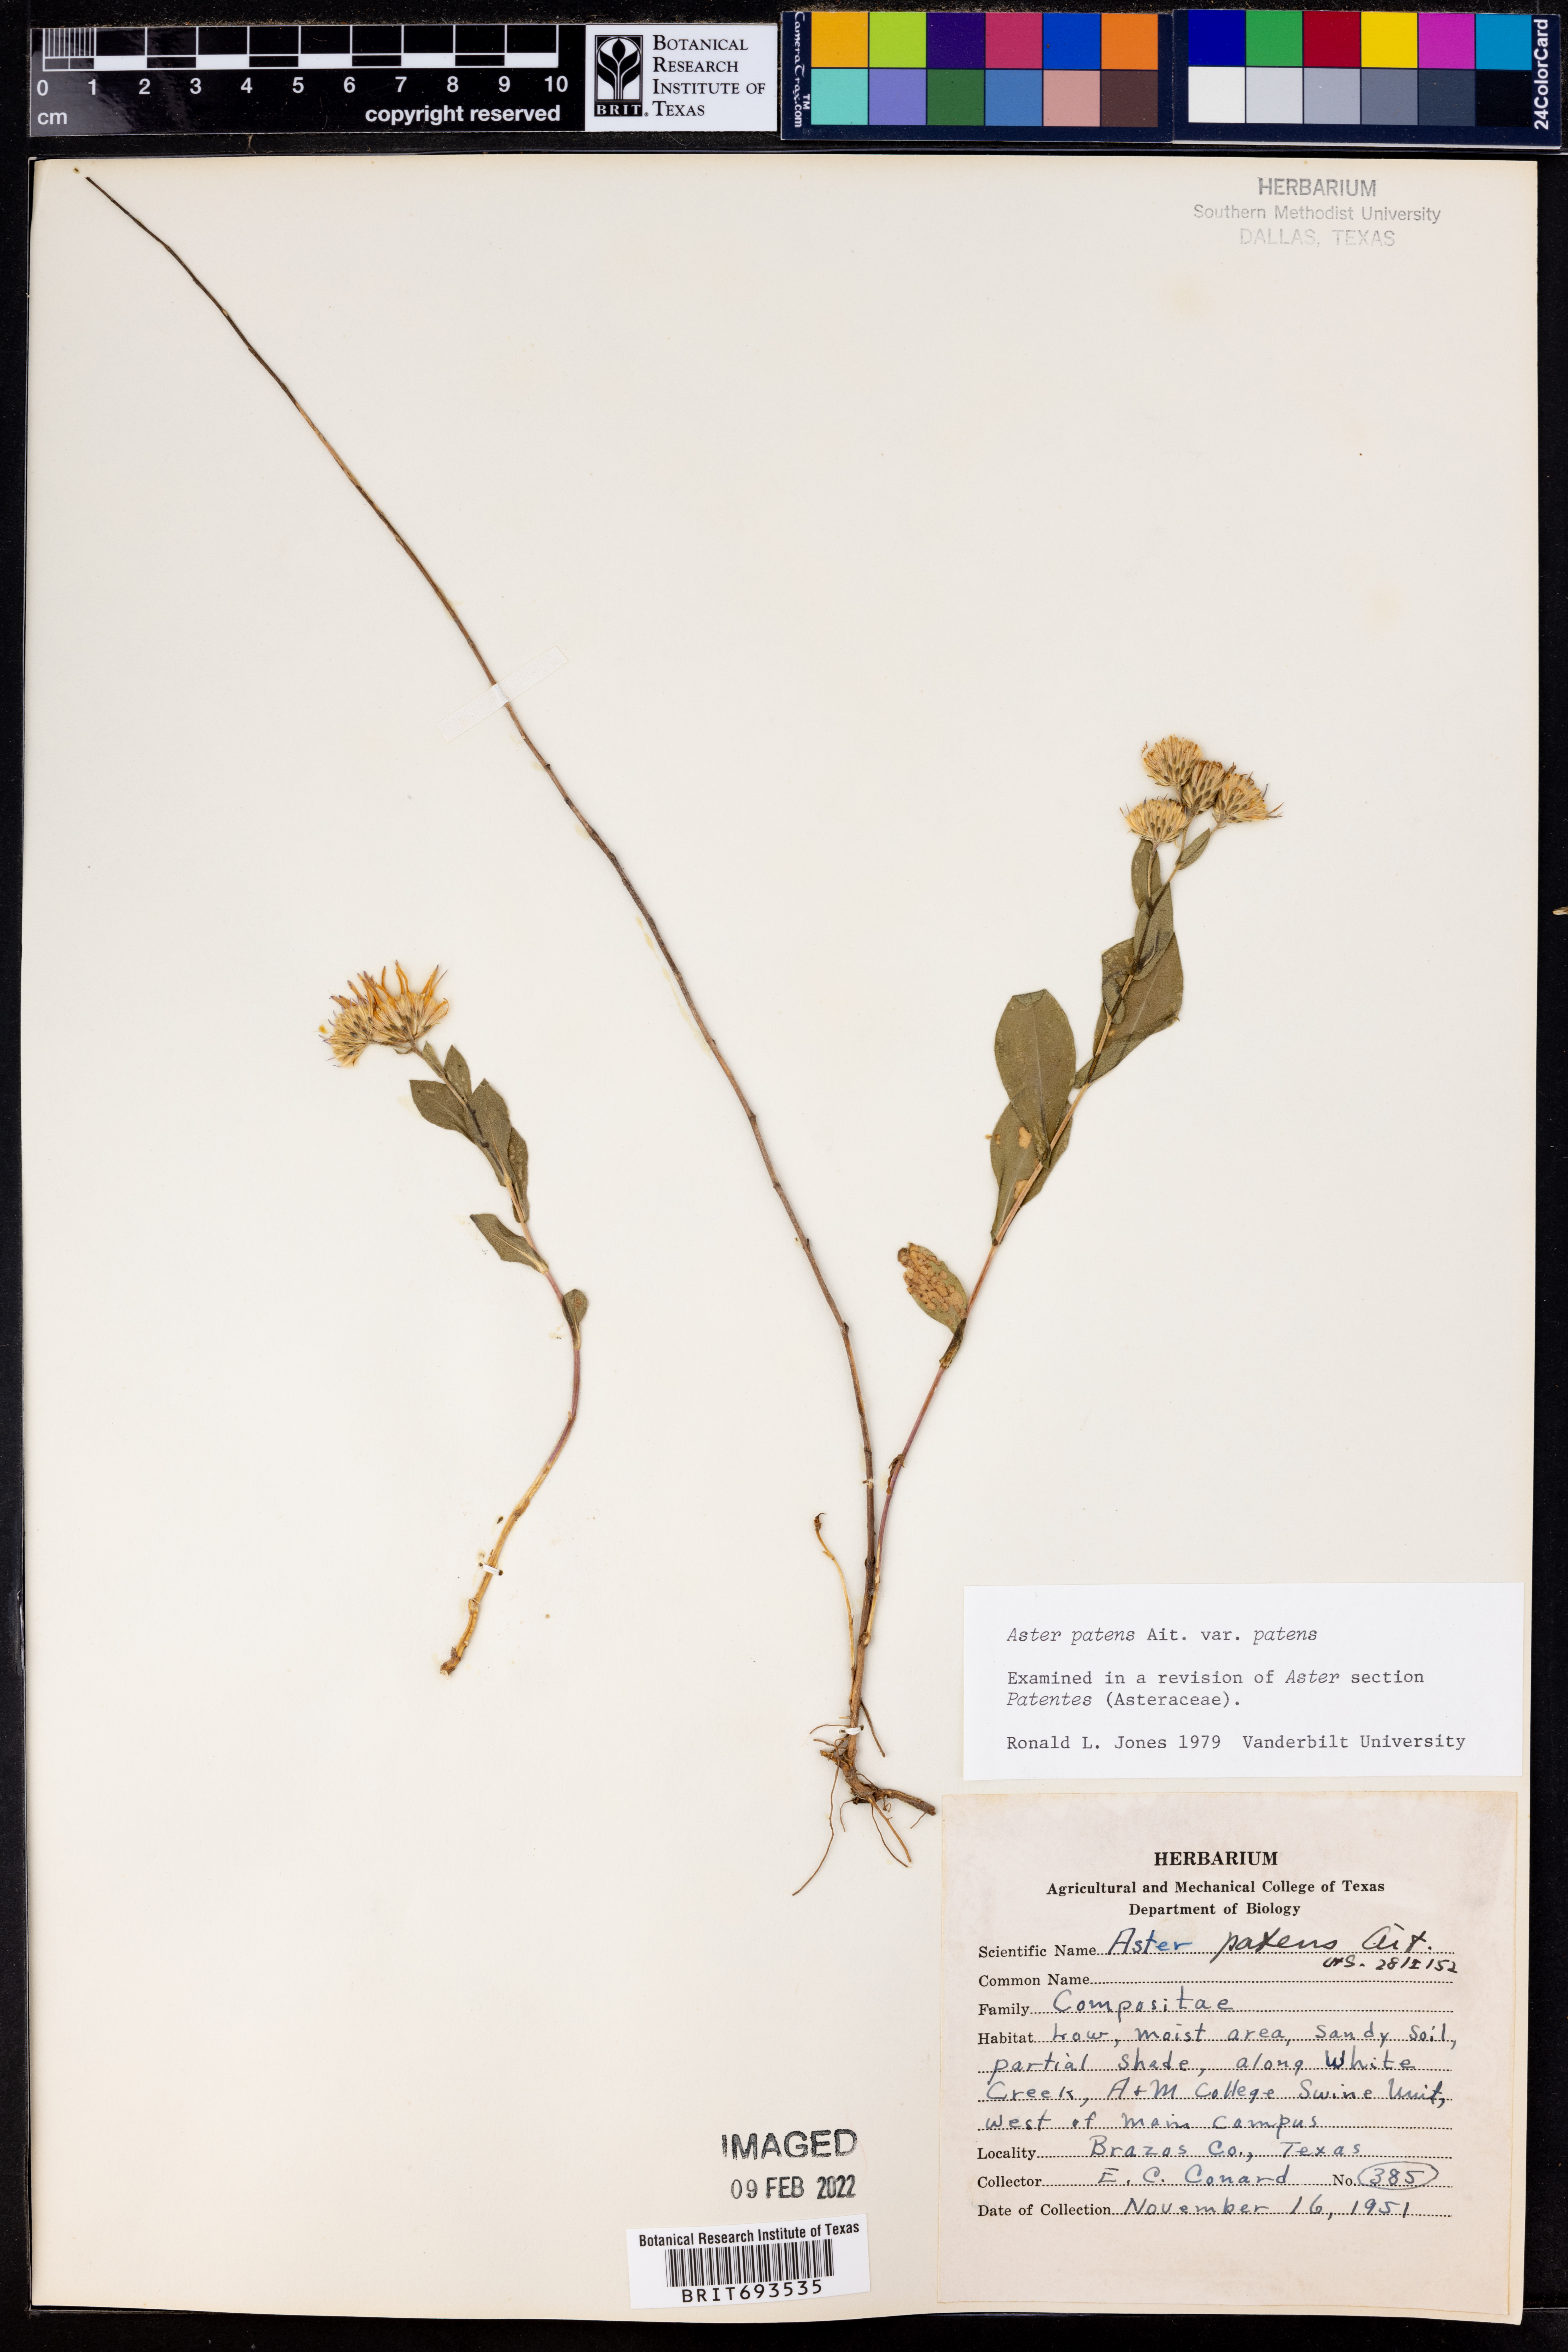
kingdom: Plantae
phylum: Tracheophyta
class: Magnoliopsida
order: Asterales
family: Asteraceae
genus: Symphyotrichum
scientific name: Symphyotrichum patens
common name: Late purple aster
